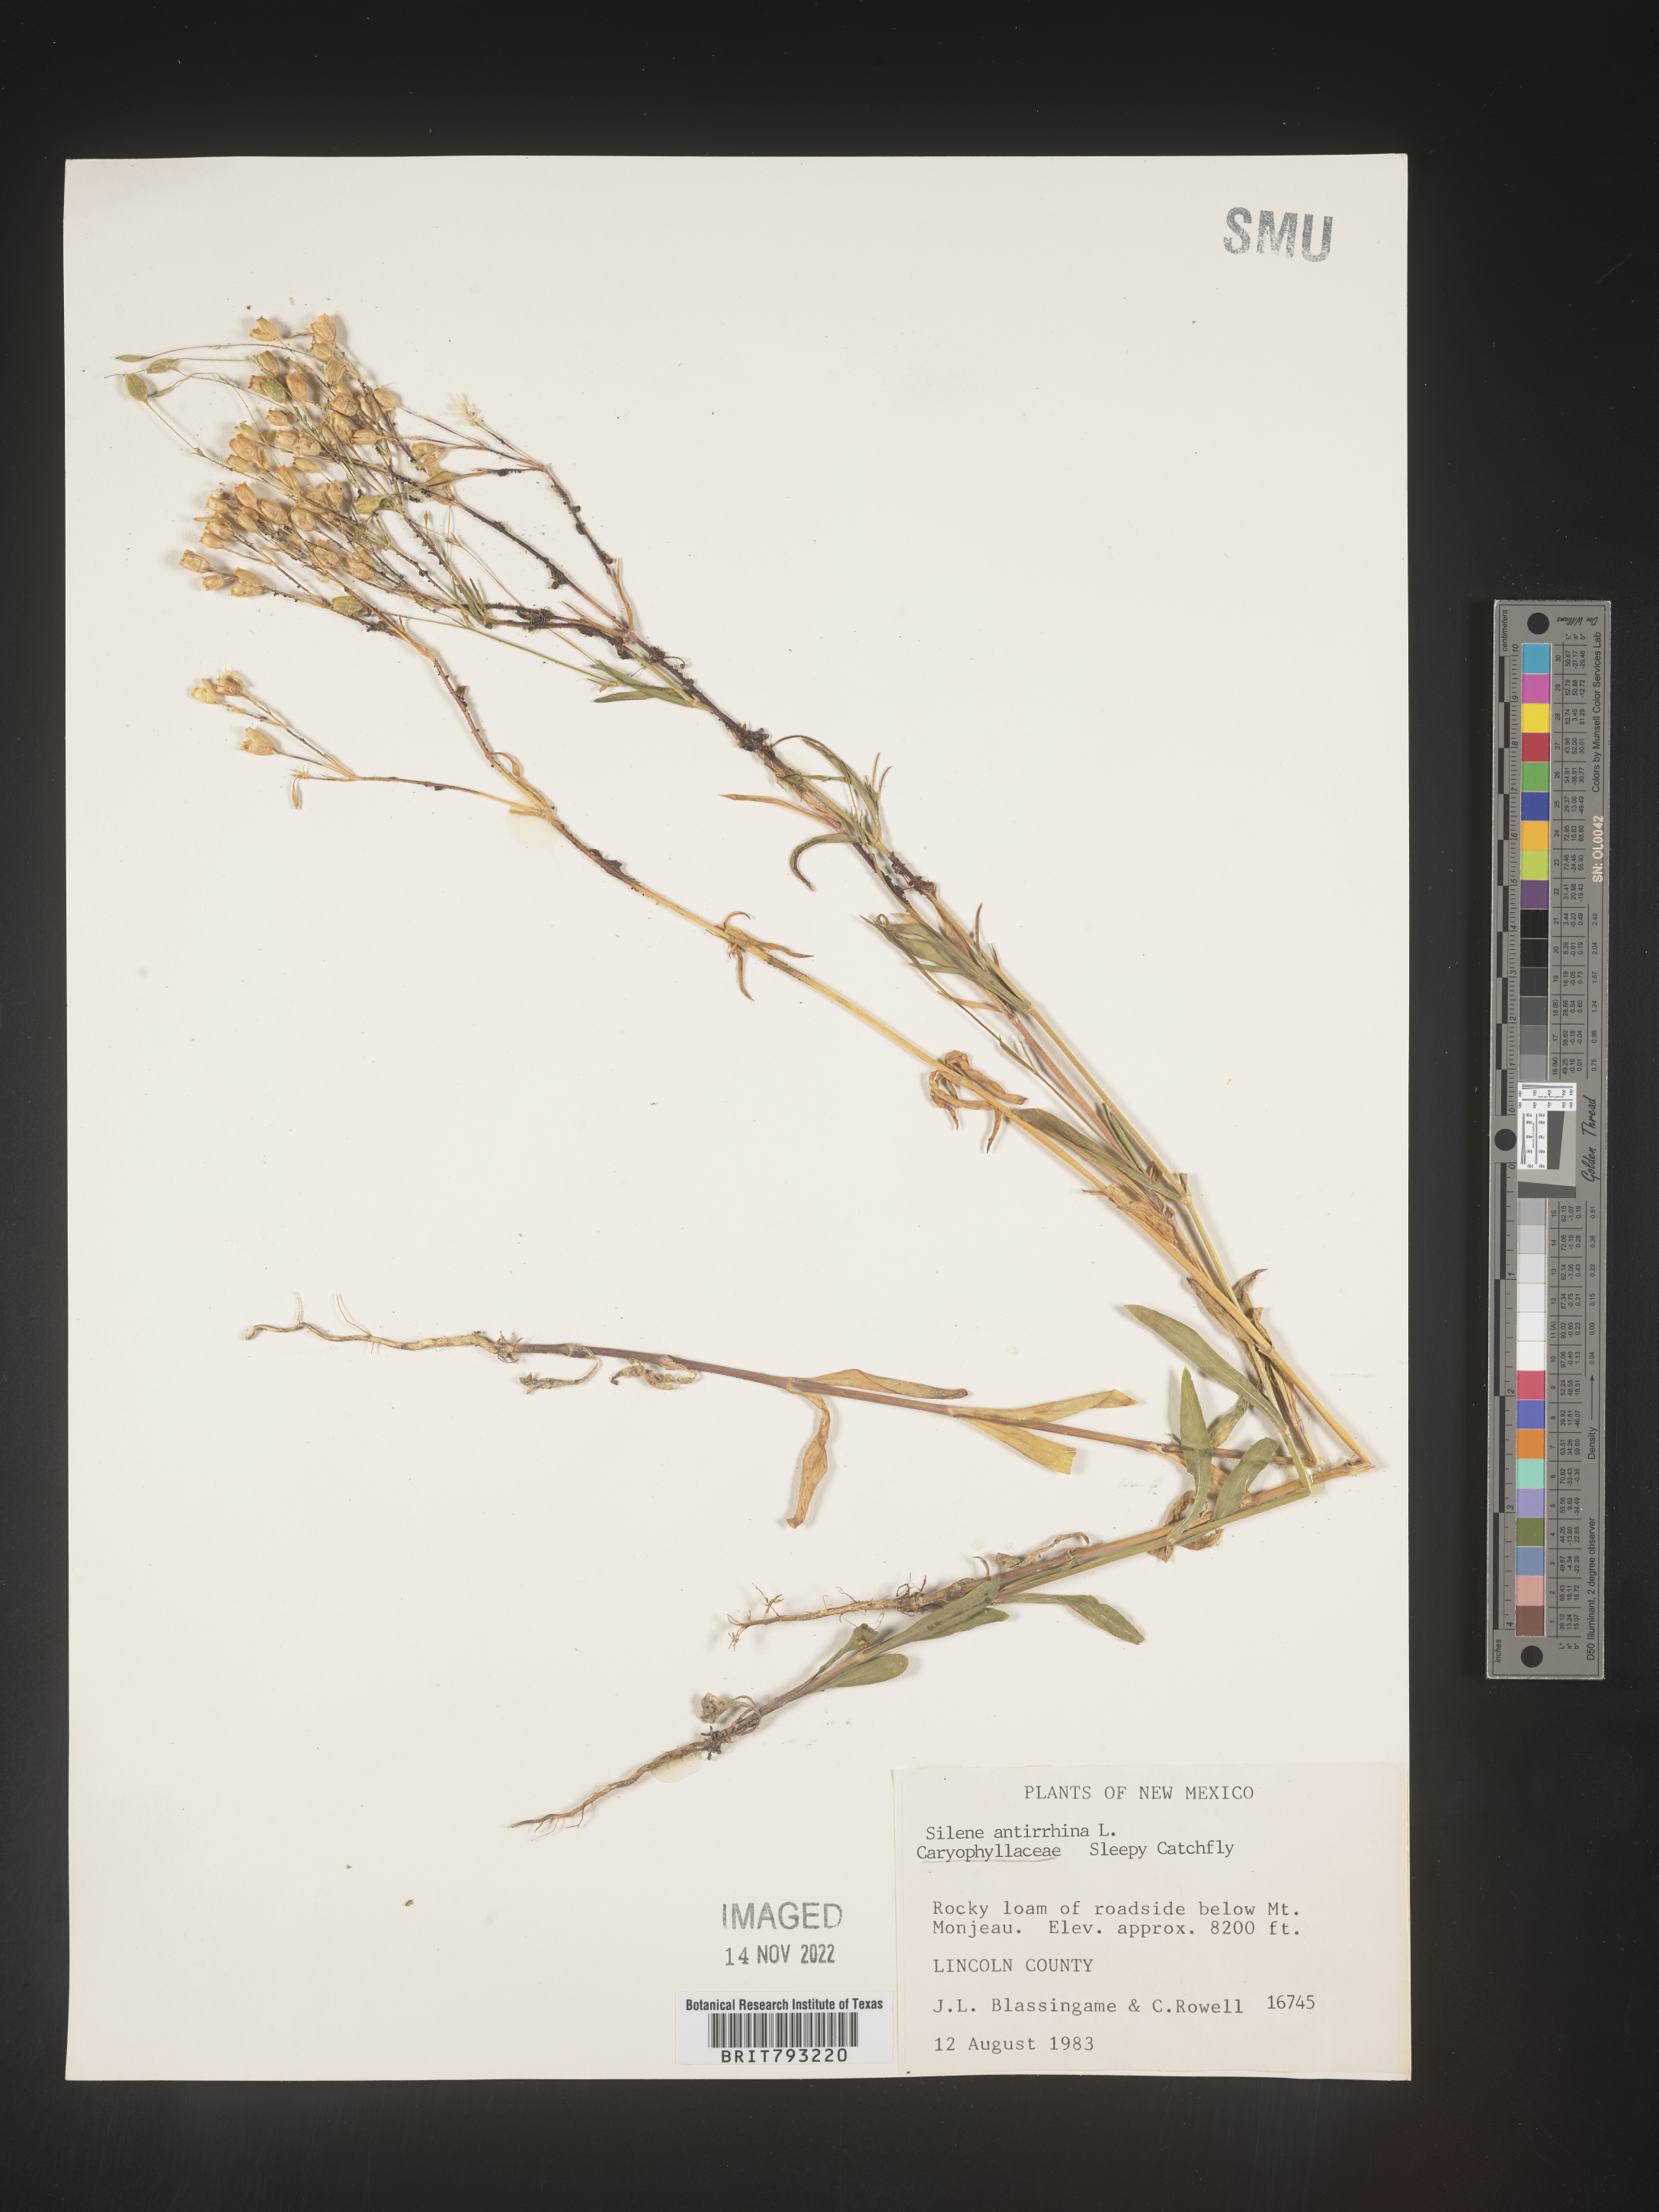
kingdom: Plantae
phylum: Tracheophyta
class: Magnoliopsida
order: Caryophyllales
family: Caryophyllaceae
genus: Silene
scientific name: Silene antirrhina
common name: Sleepy catchfly
